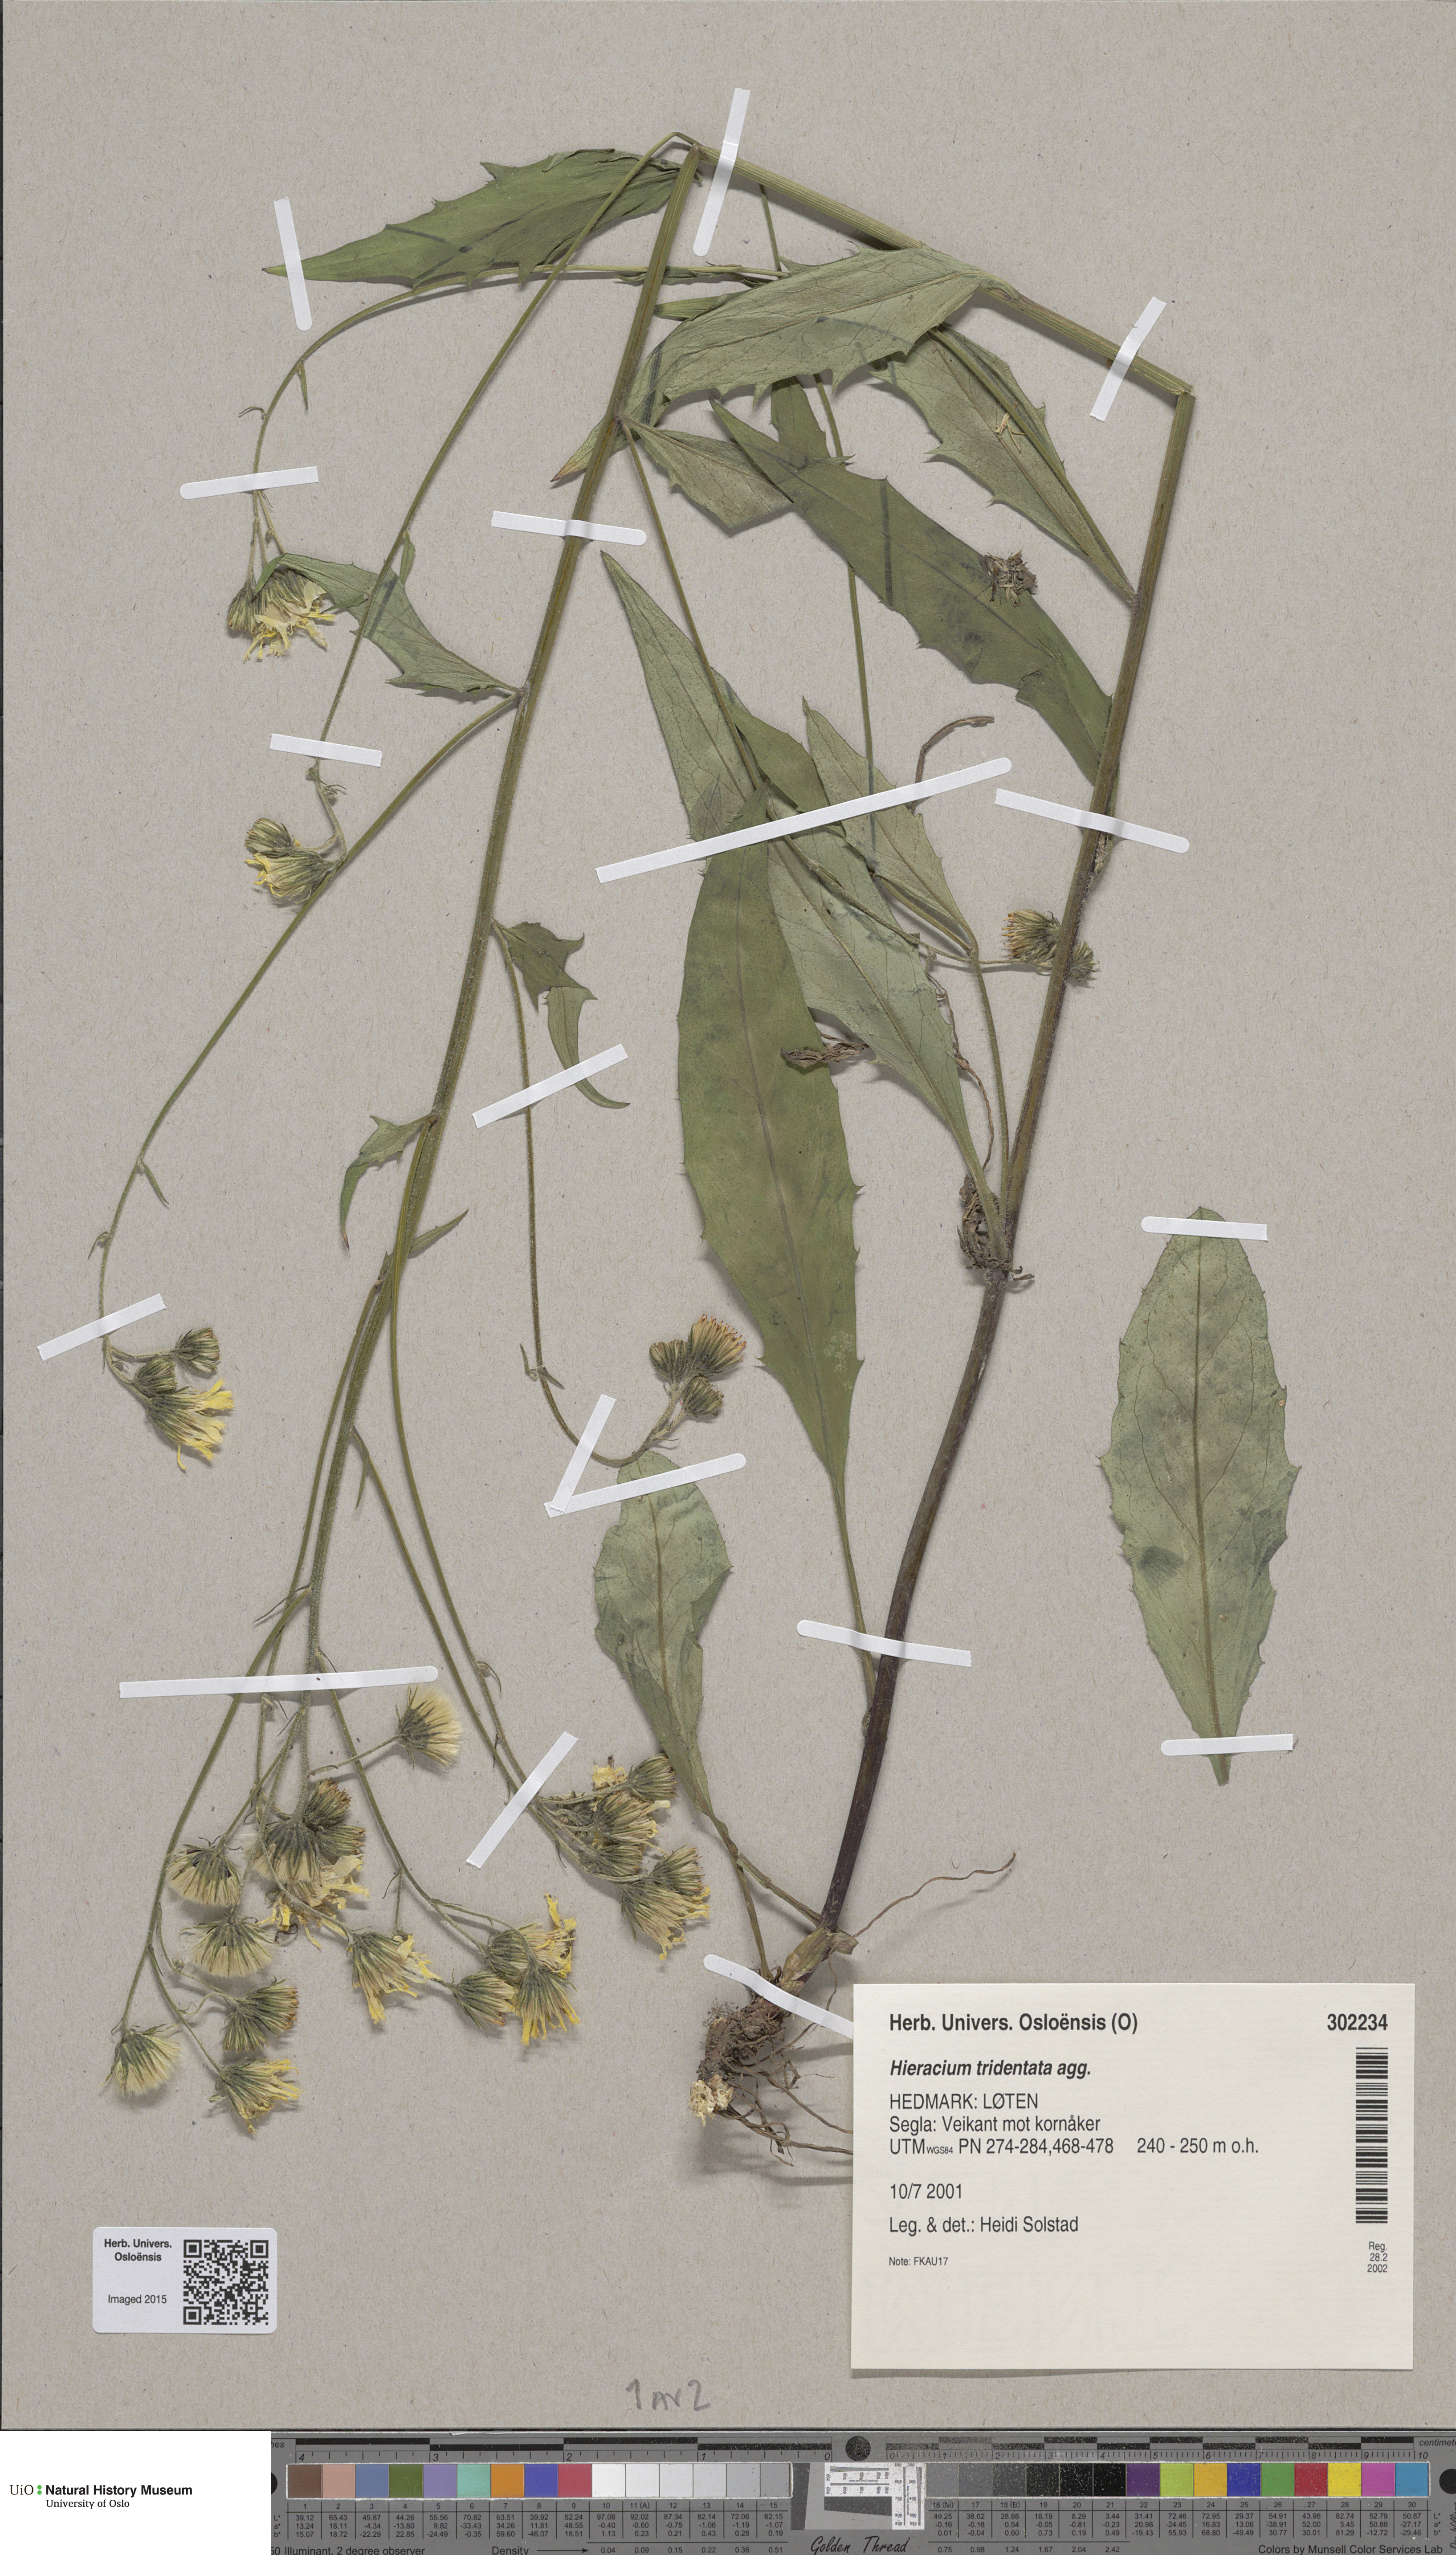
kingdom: Plantae
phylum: Tracheophyta
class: Magnoliopsida
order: Asterales
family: Asteraceae
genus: Hieracium
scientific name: Hieracium tridentatum
